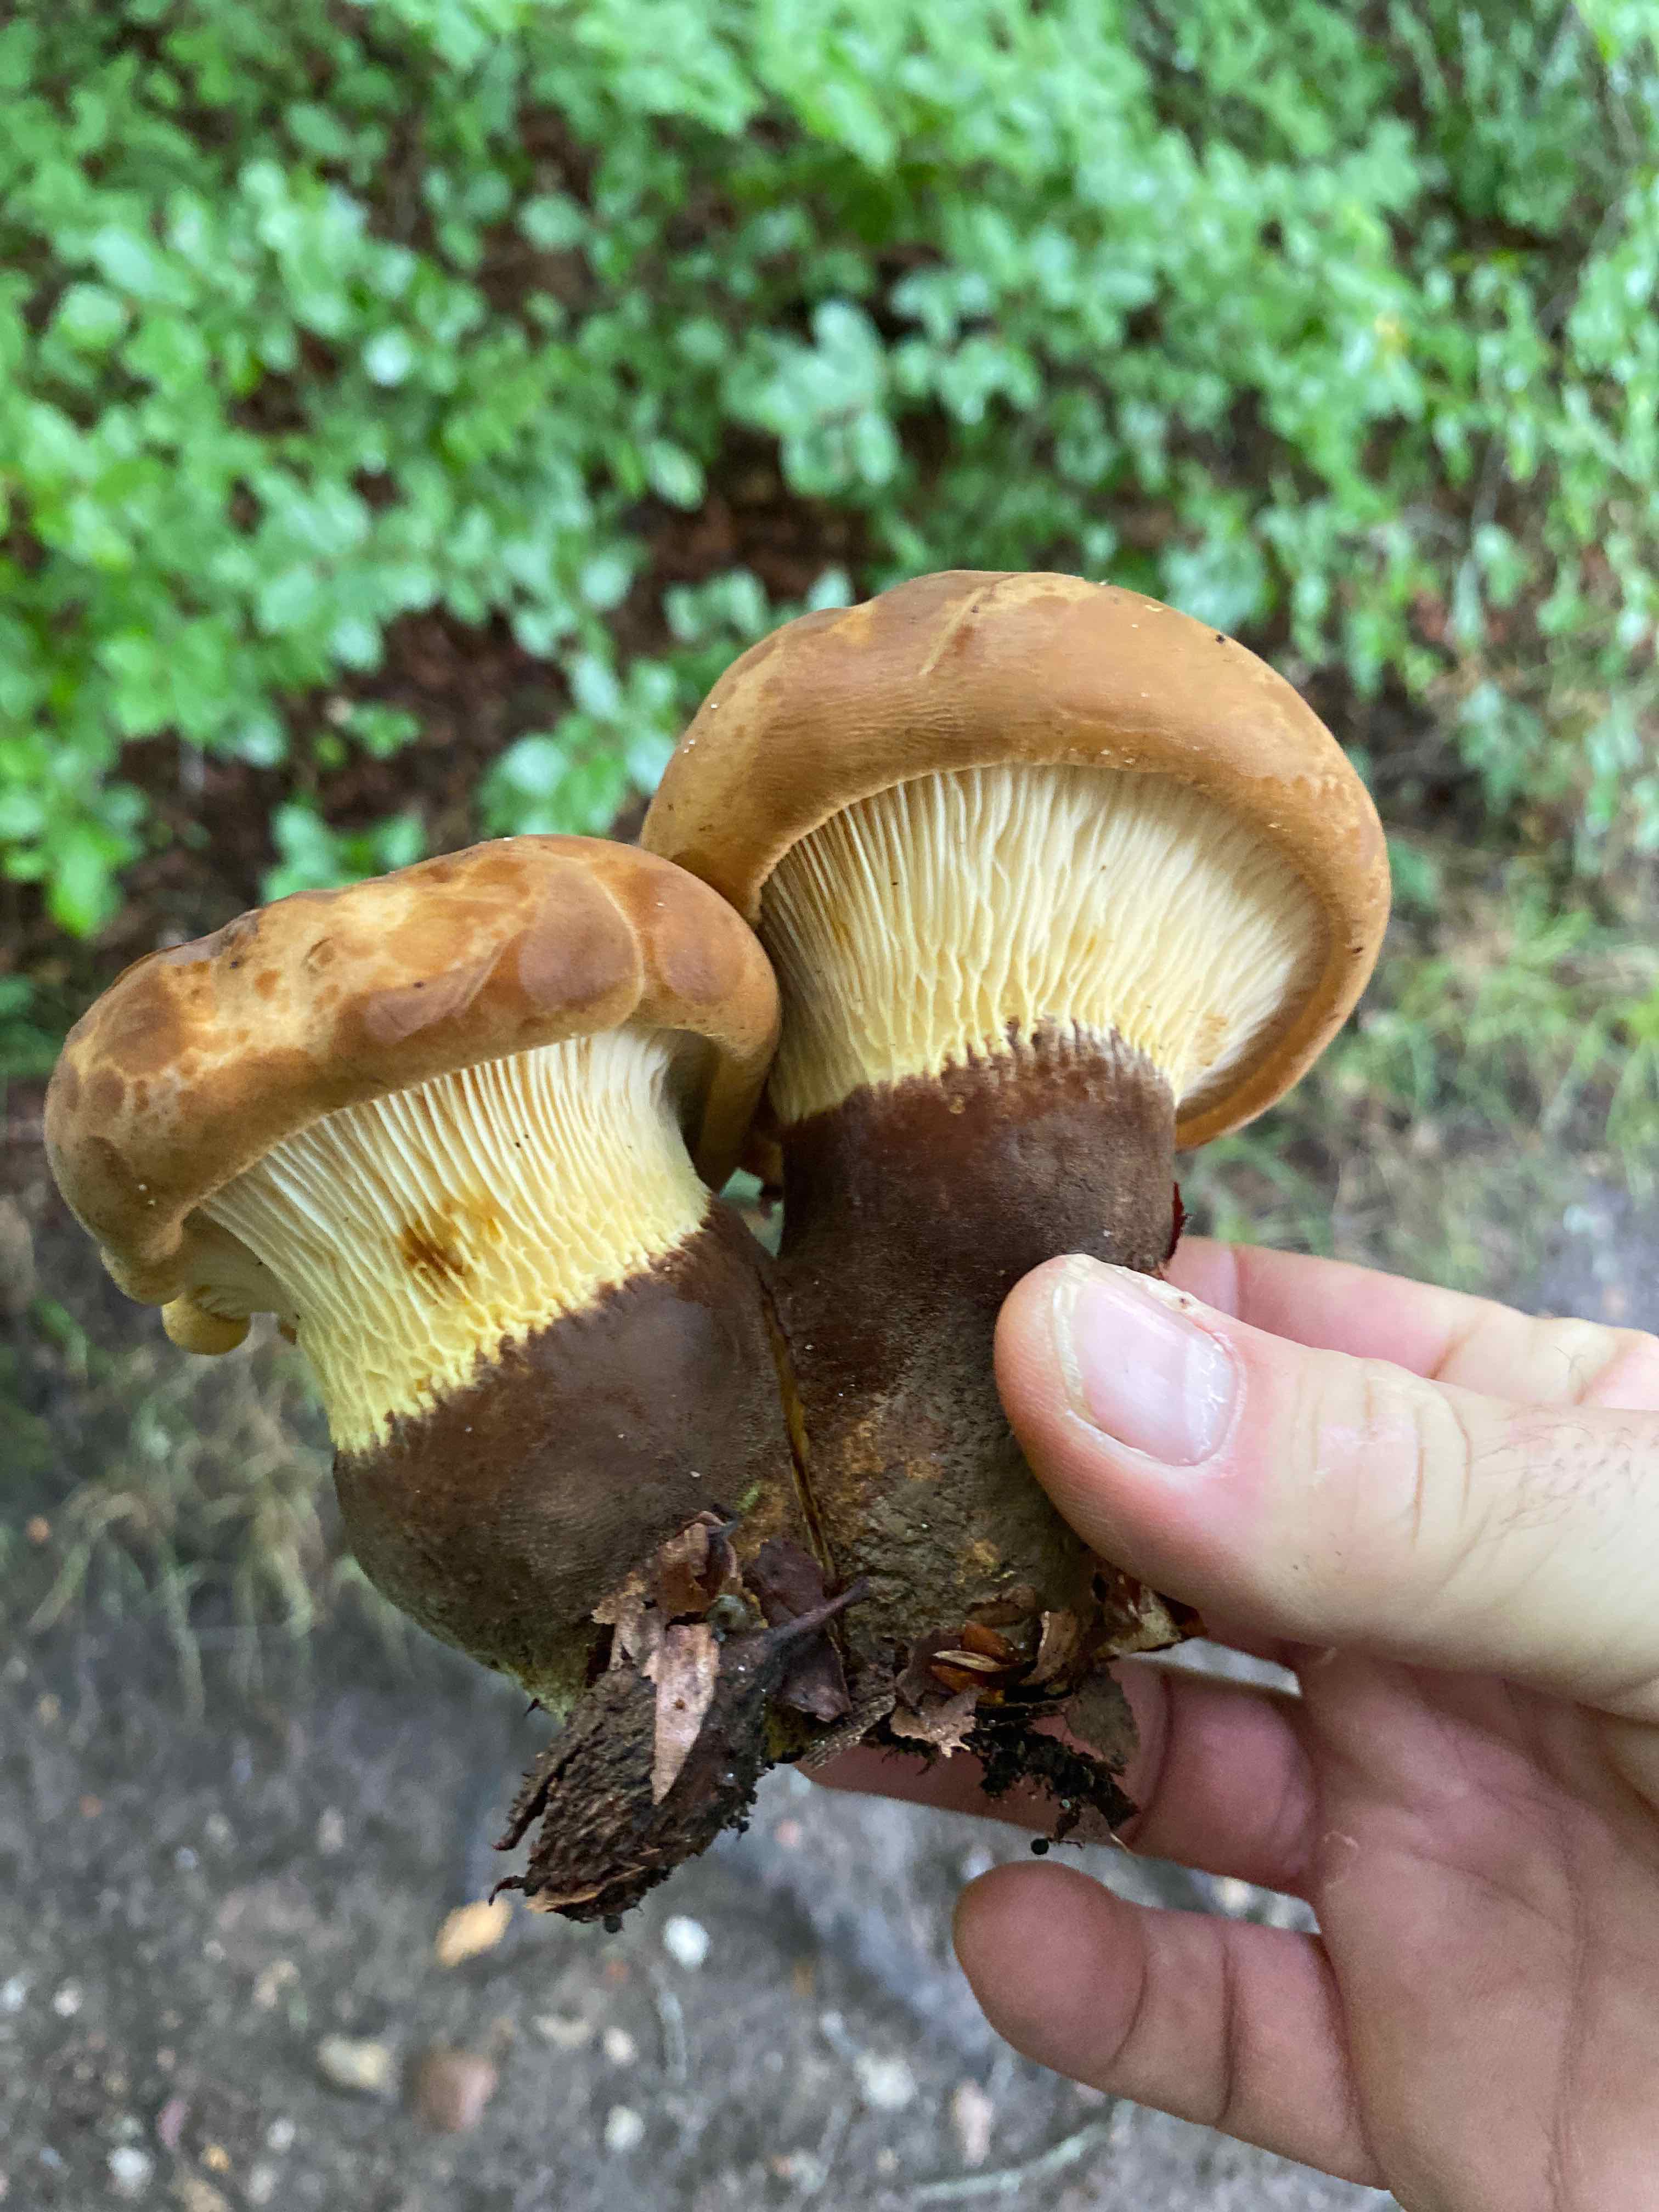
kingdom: Fungi
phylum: Basidiomycota
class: Agaricomycetes
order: Boletales
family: Tapinellaceae
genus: Tapinella
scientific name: Tapinella atrotomentosa
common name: sortfiltet viftesvamp
